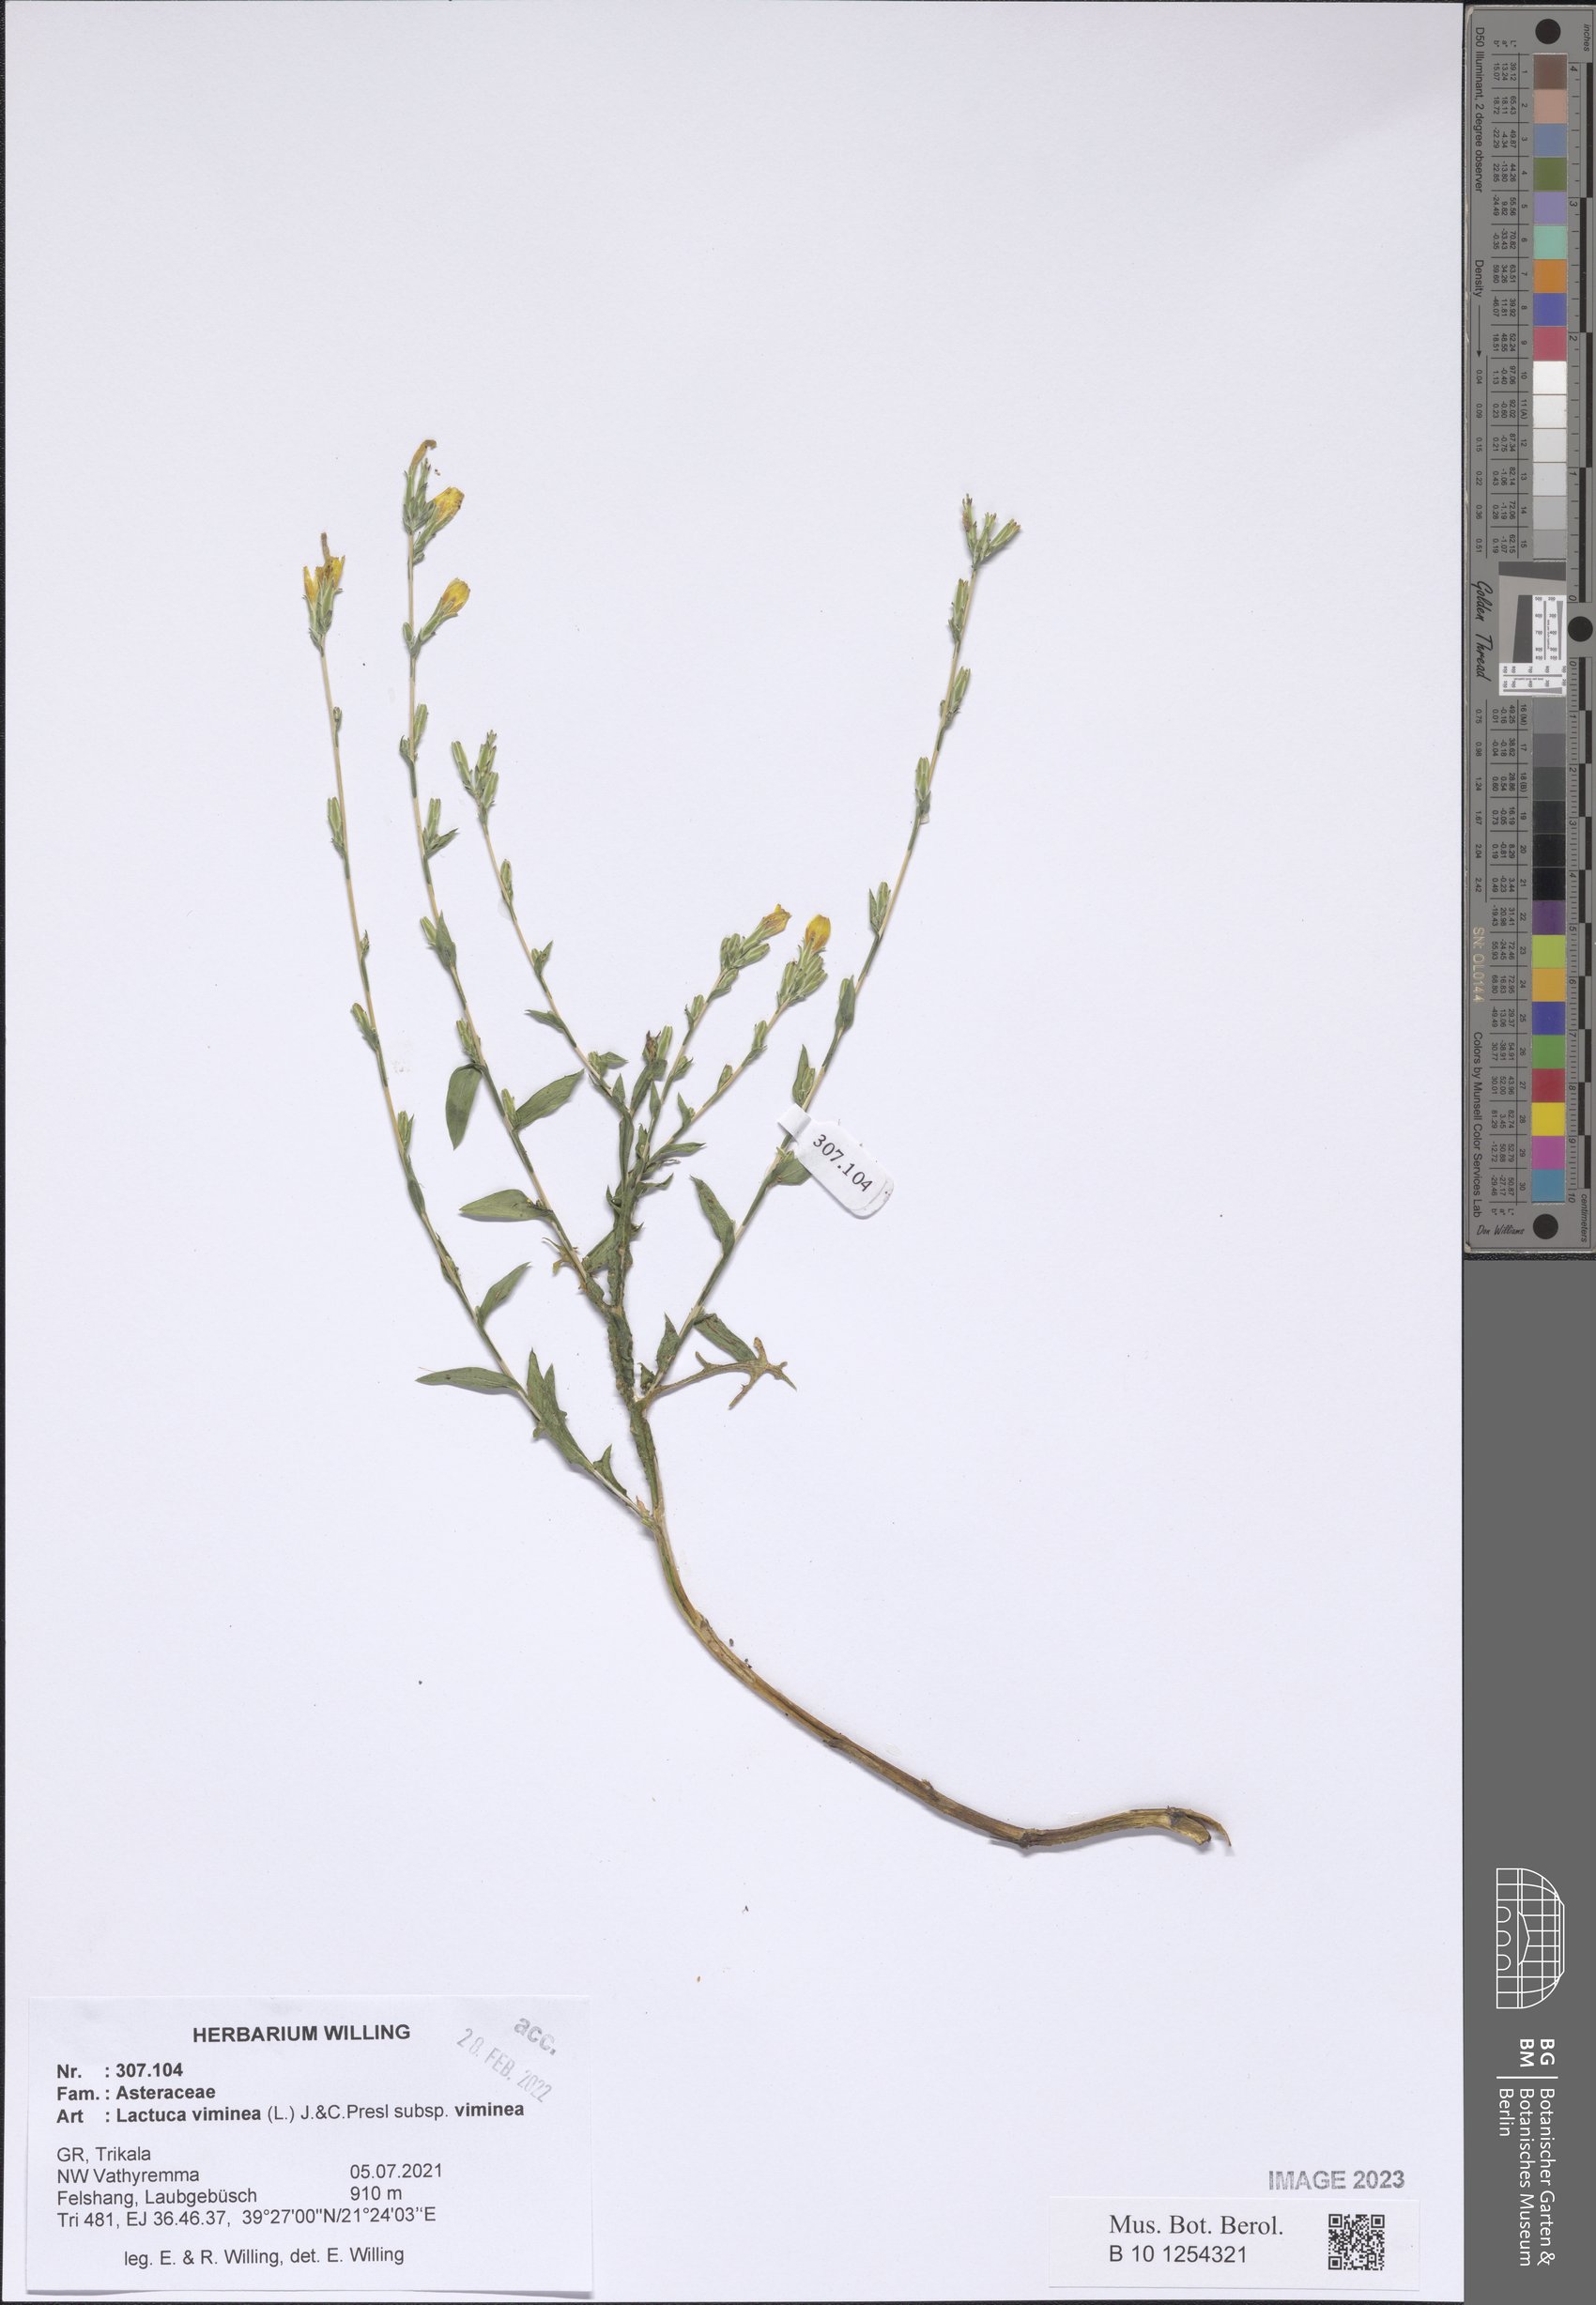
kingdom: Plantae
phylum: Tracheophyta
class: Magnoliopsida
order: Asterales
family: Asteraceae
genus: Lactuca
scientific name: Lactuca viminea
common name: Pliant lettuce
